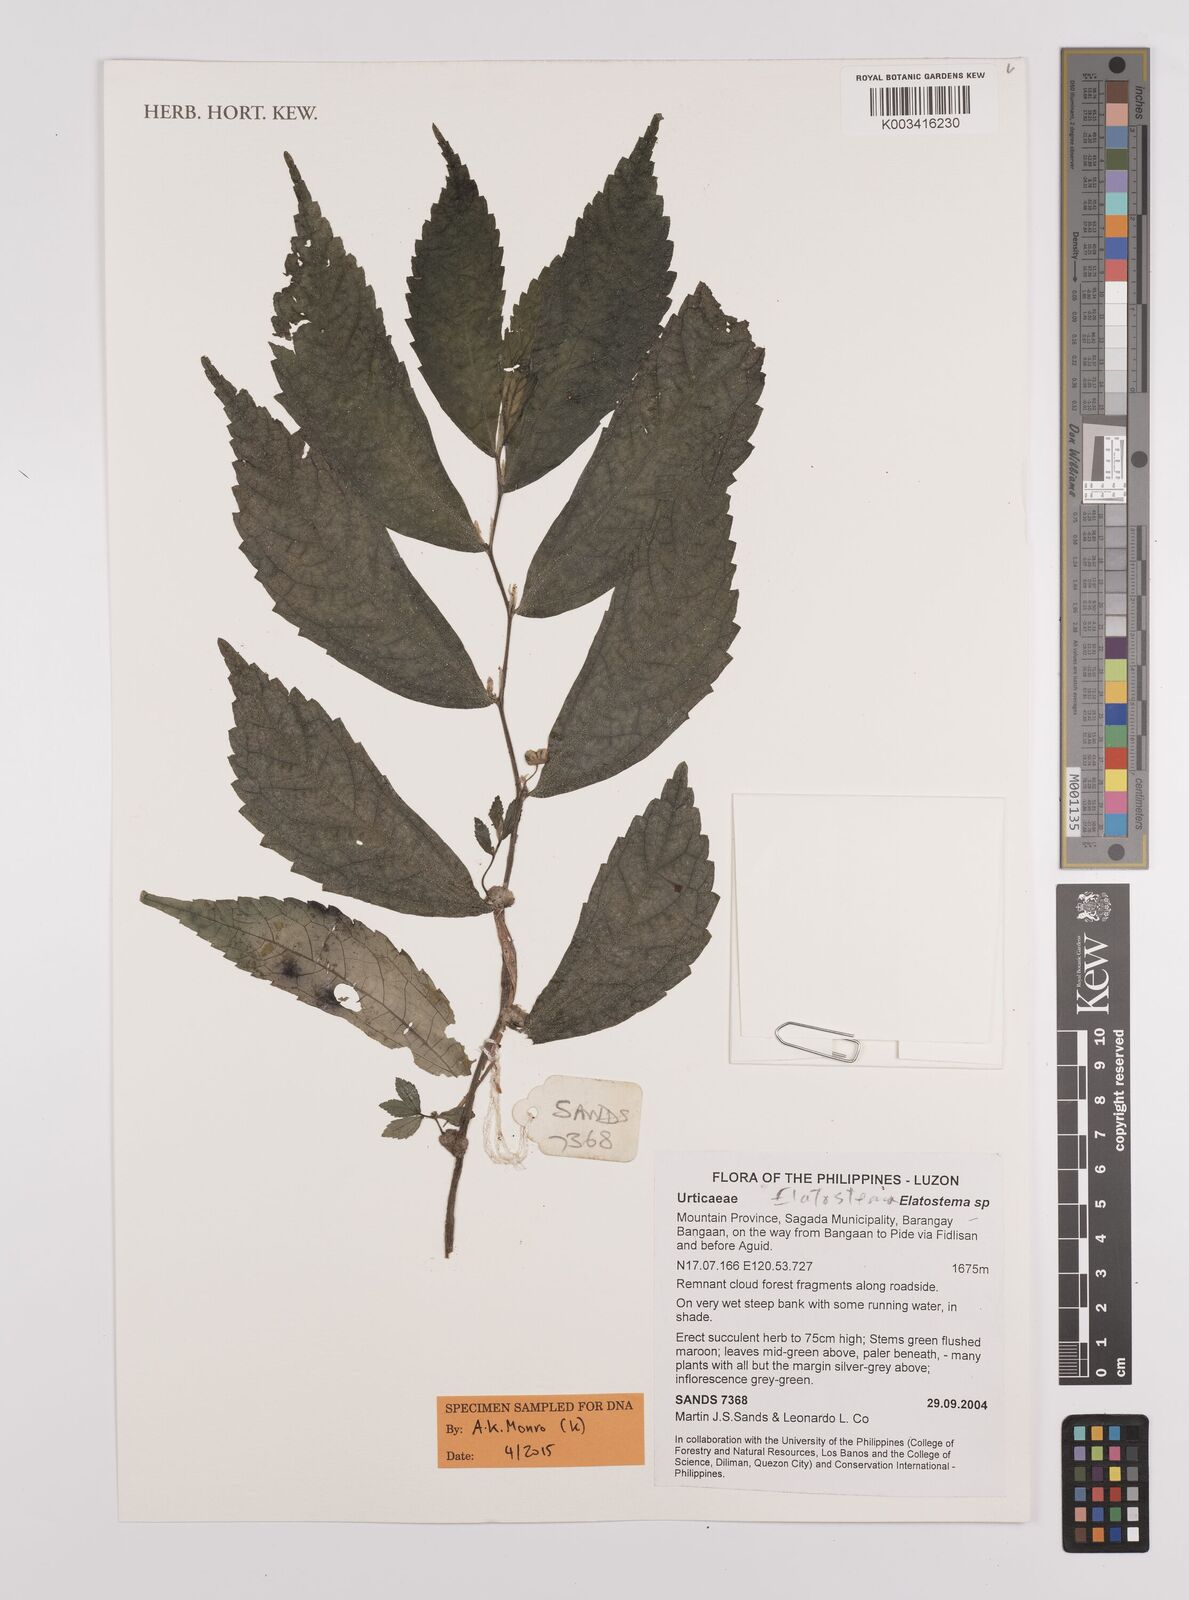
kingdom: Plantae
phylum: Tracheophyta
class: Magnoliopsida
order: Rosales
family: Urticaceae
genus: Elatostema
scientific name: Elatostema
